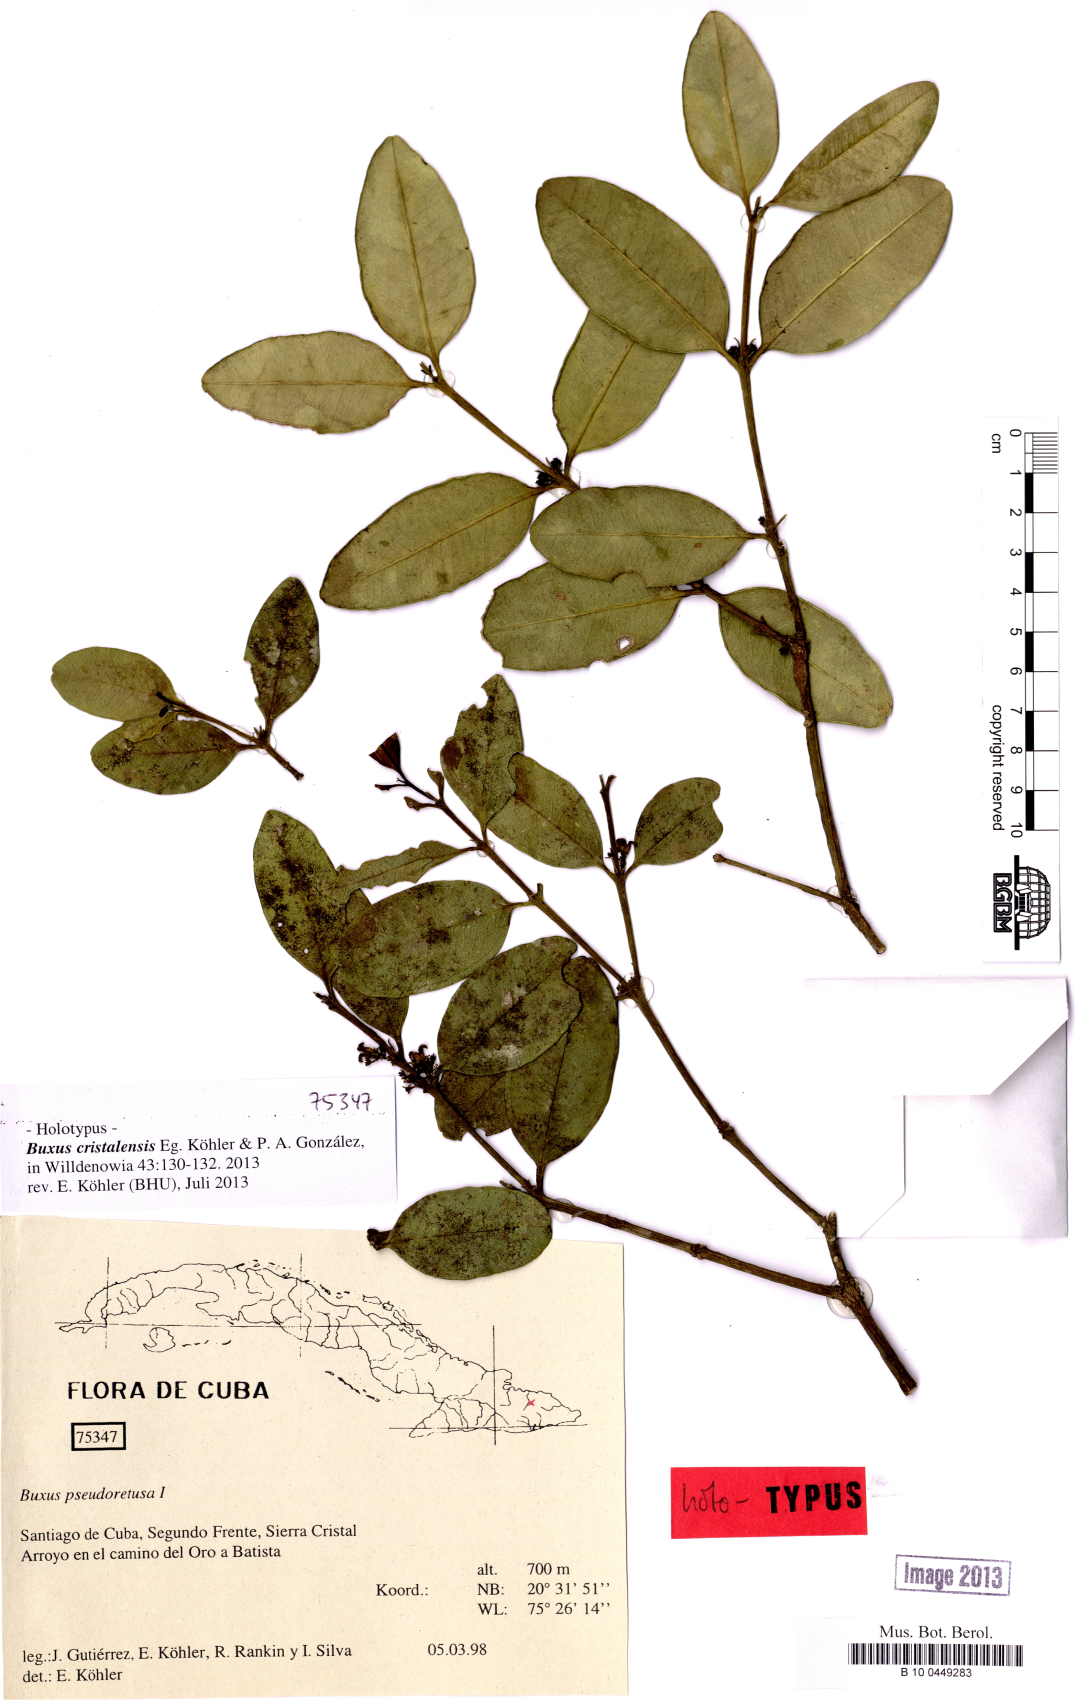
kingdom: Plantae
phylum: Tracheophyta
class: Magnoliopsida
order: Buxales
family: Buxaceae
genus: Buxus
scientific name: Buxus cristalensis
